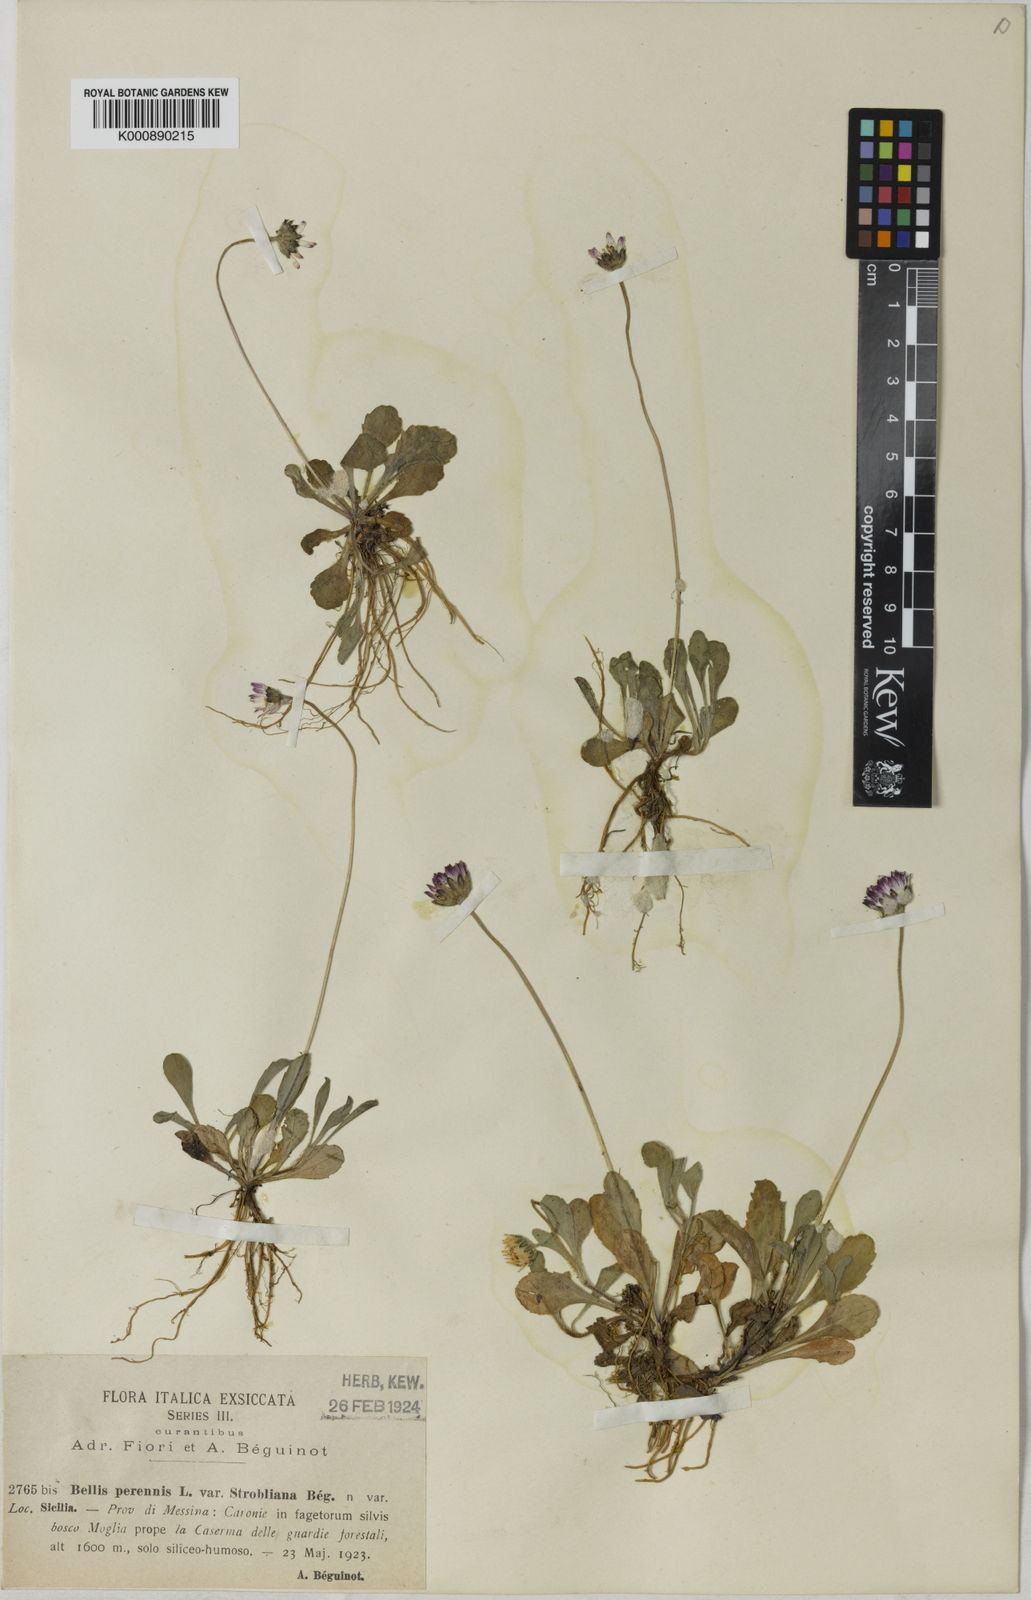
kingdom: Plantae
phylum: Tracheophyta
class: Magnoliopsida
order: Asterales
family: Asteraceae
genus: Bellis
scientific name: Bellis perennis
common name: Lawndaisy
